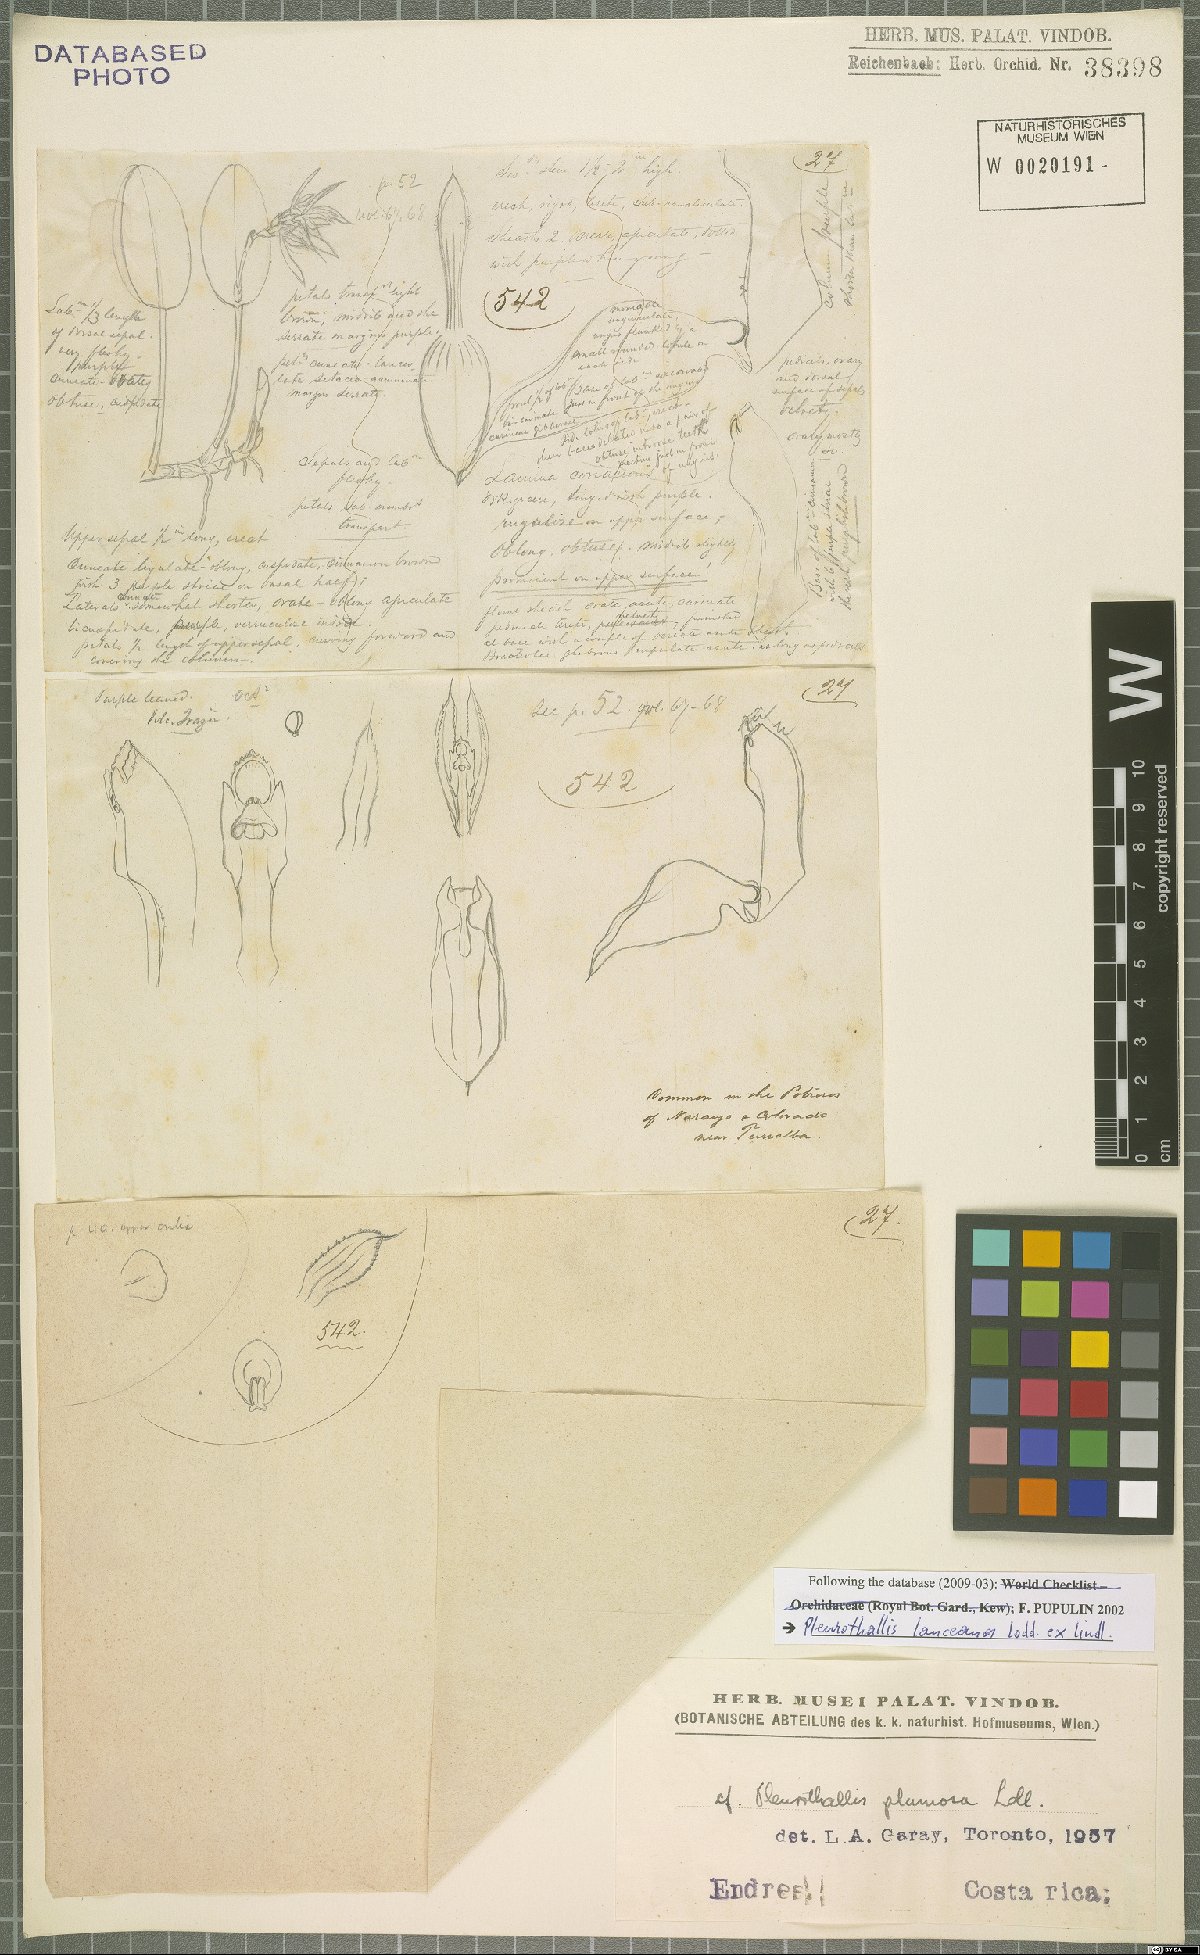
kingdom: Plantae
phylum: Tracheophyta
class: Liliopsida
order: Asparagales
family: Orchidaceae
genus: Acianthera
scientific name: Acianthera geminicaulina
